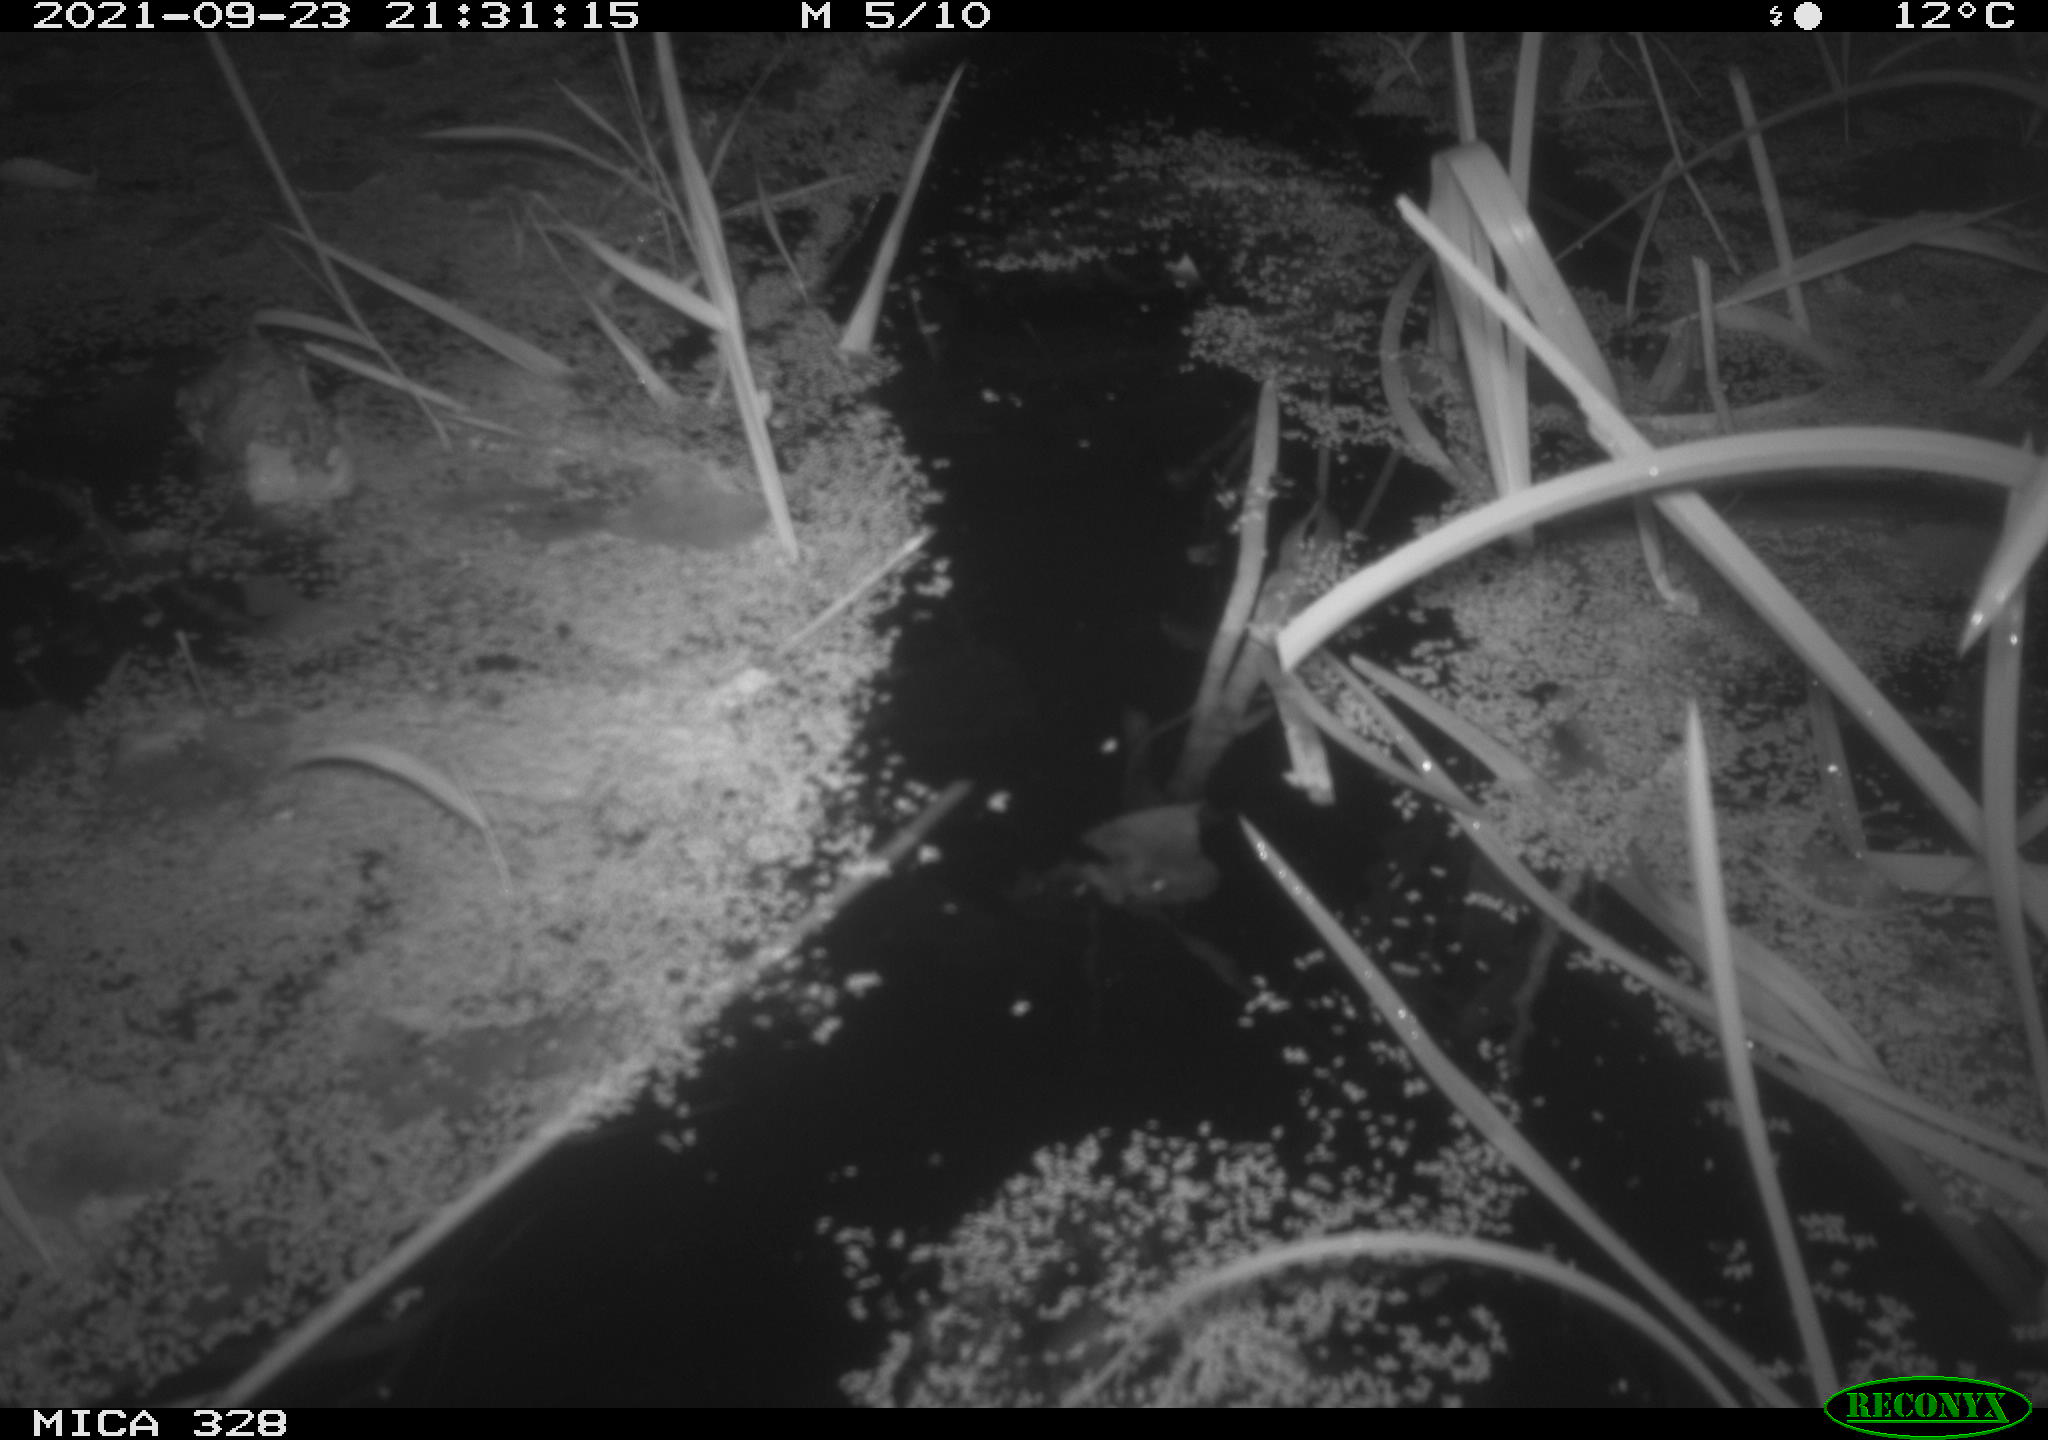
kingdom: Animalia
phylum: Chordata
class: Mammalia
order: Rodentia
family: Cricetidae
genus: Ondatra
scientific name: Ondatra zibethicus
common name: Muskrat
